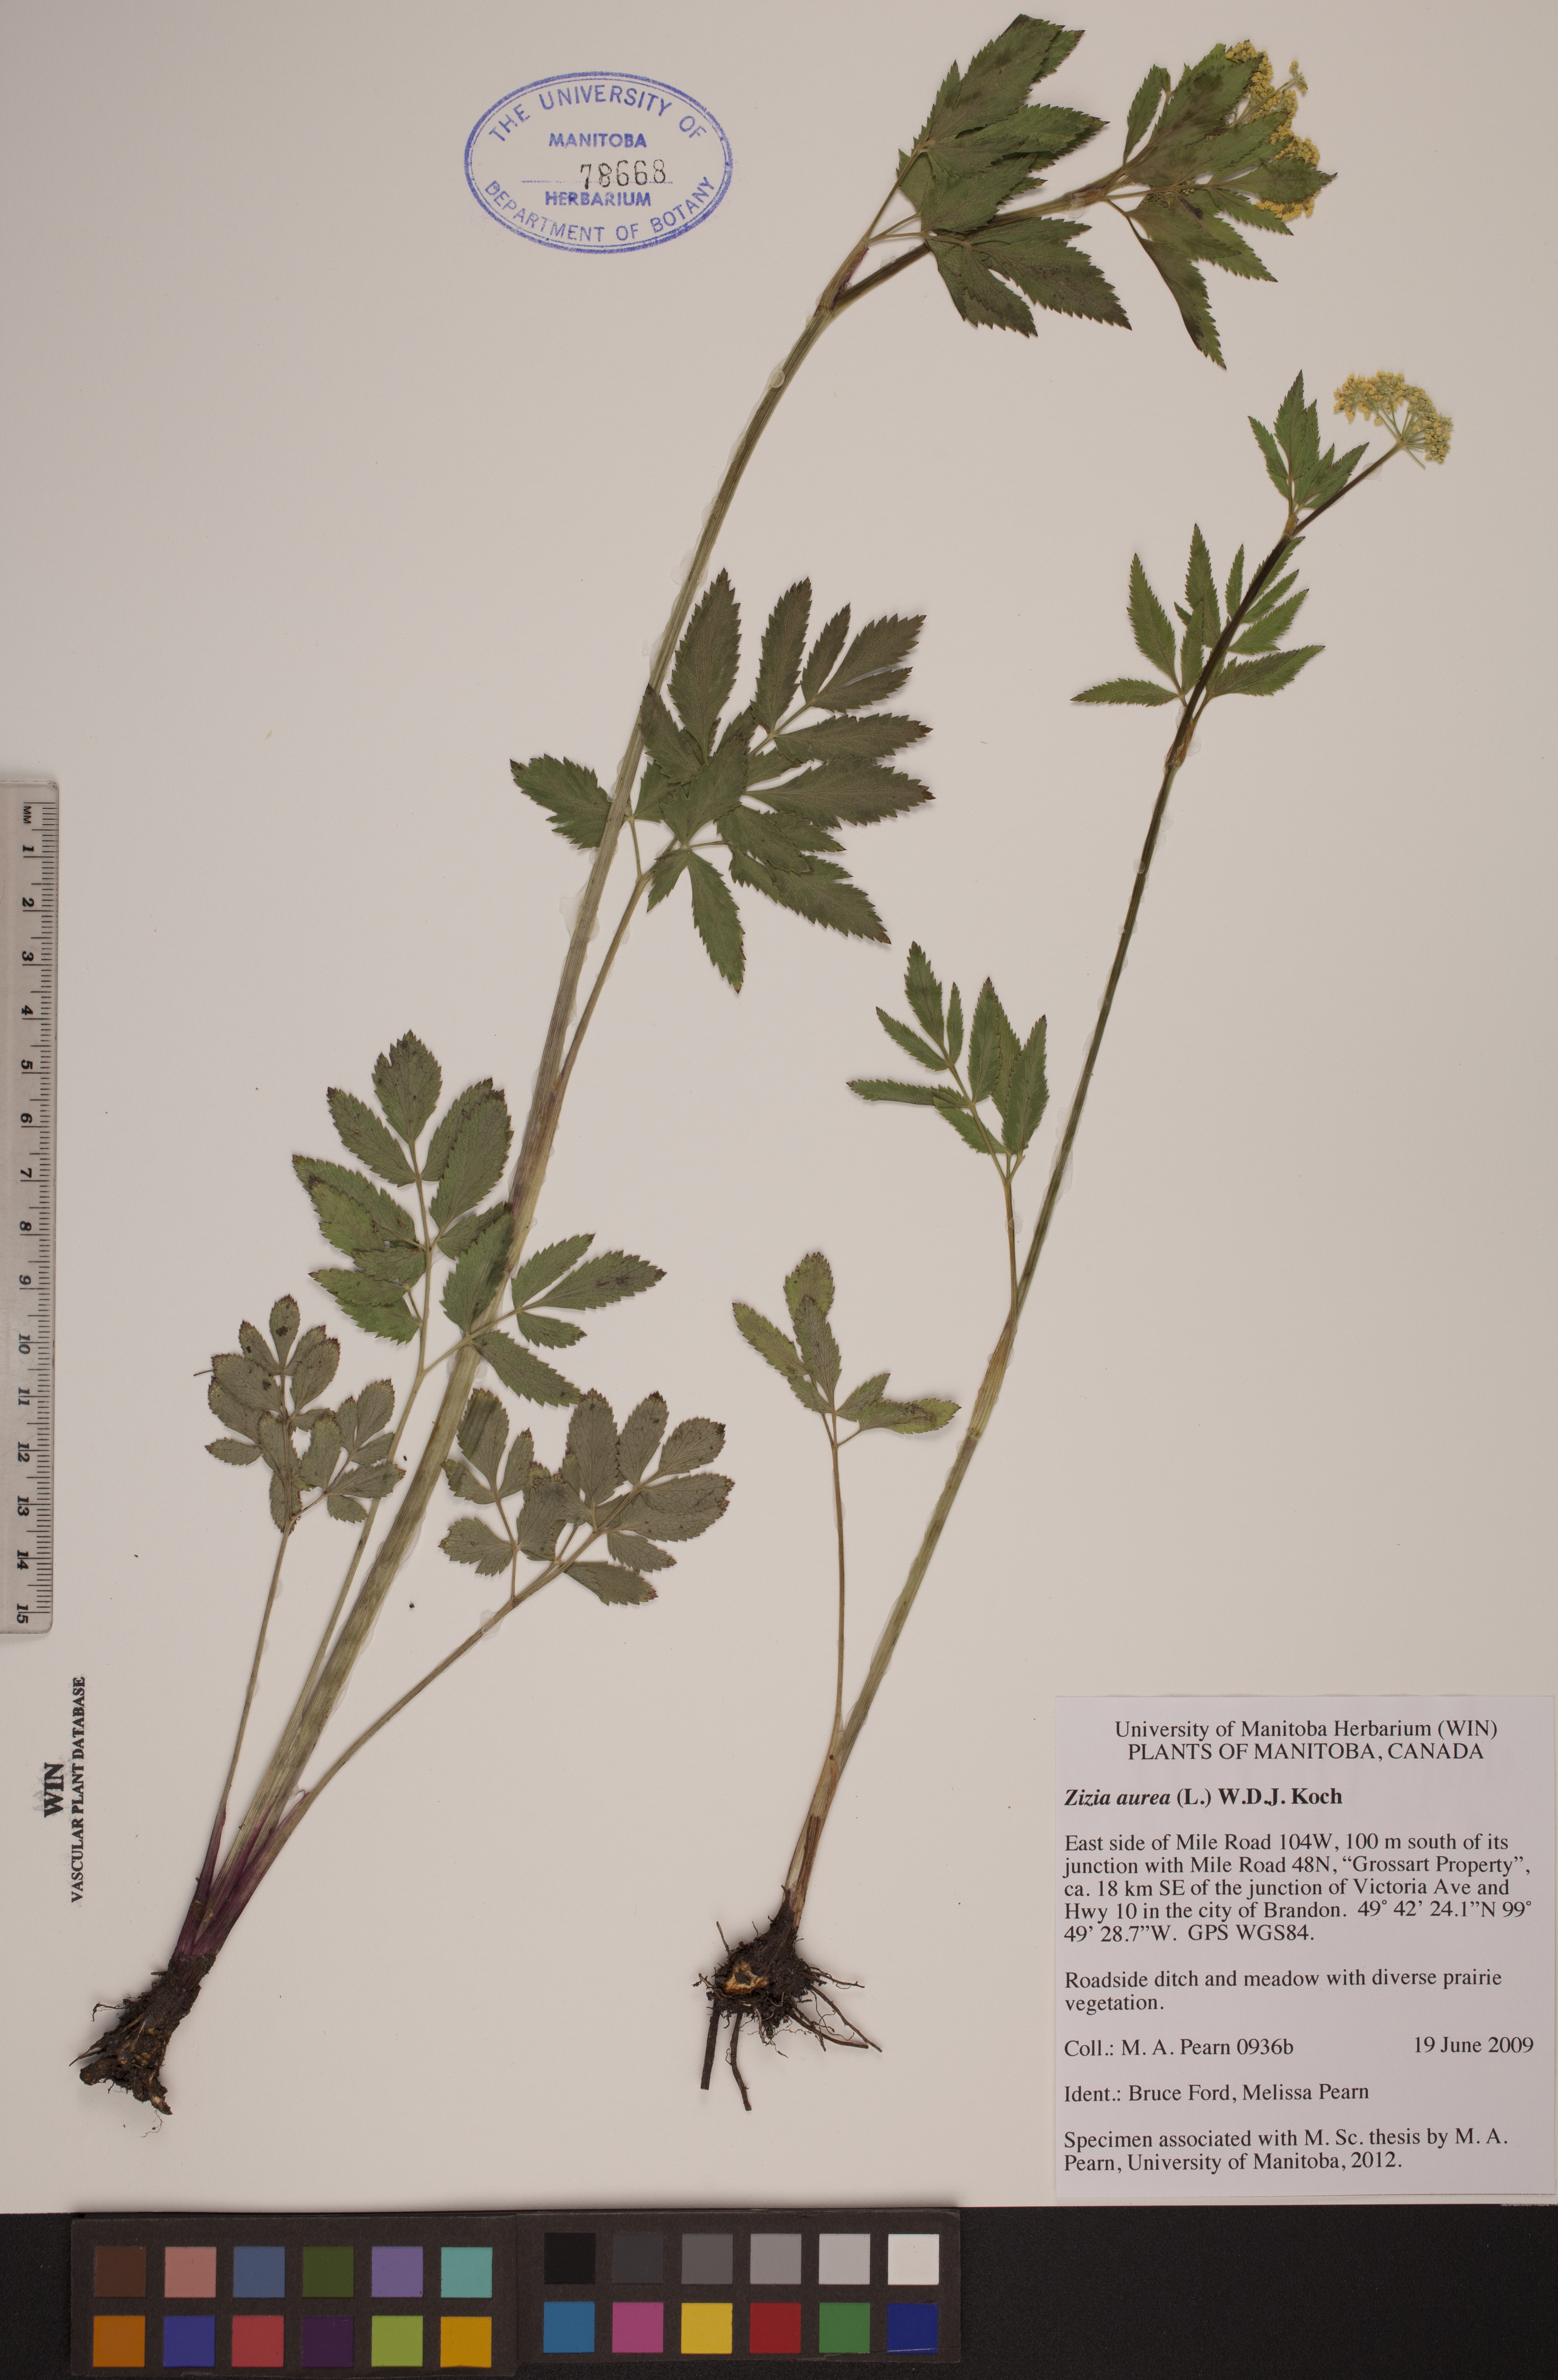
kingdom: Plantae
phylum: Tracheophyta
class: Magnoliopsida
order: Apiales
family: Apiaceae
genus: Zizia
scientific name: Zizia aurea
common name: Golden alexanders
